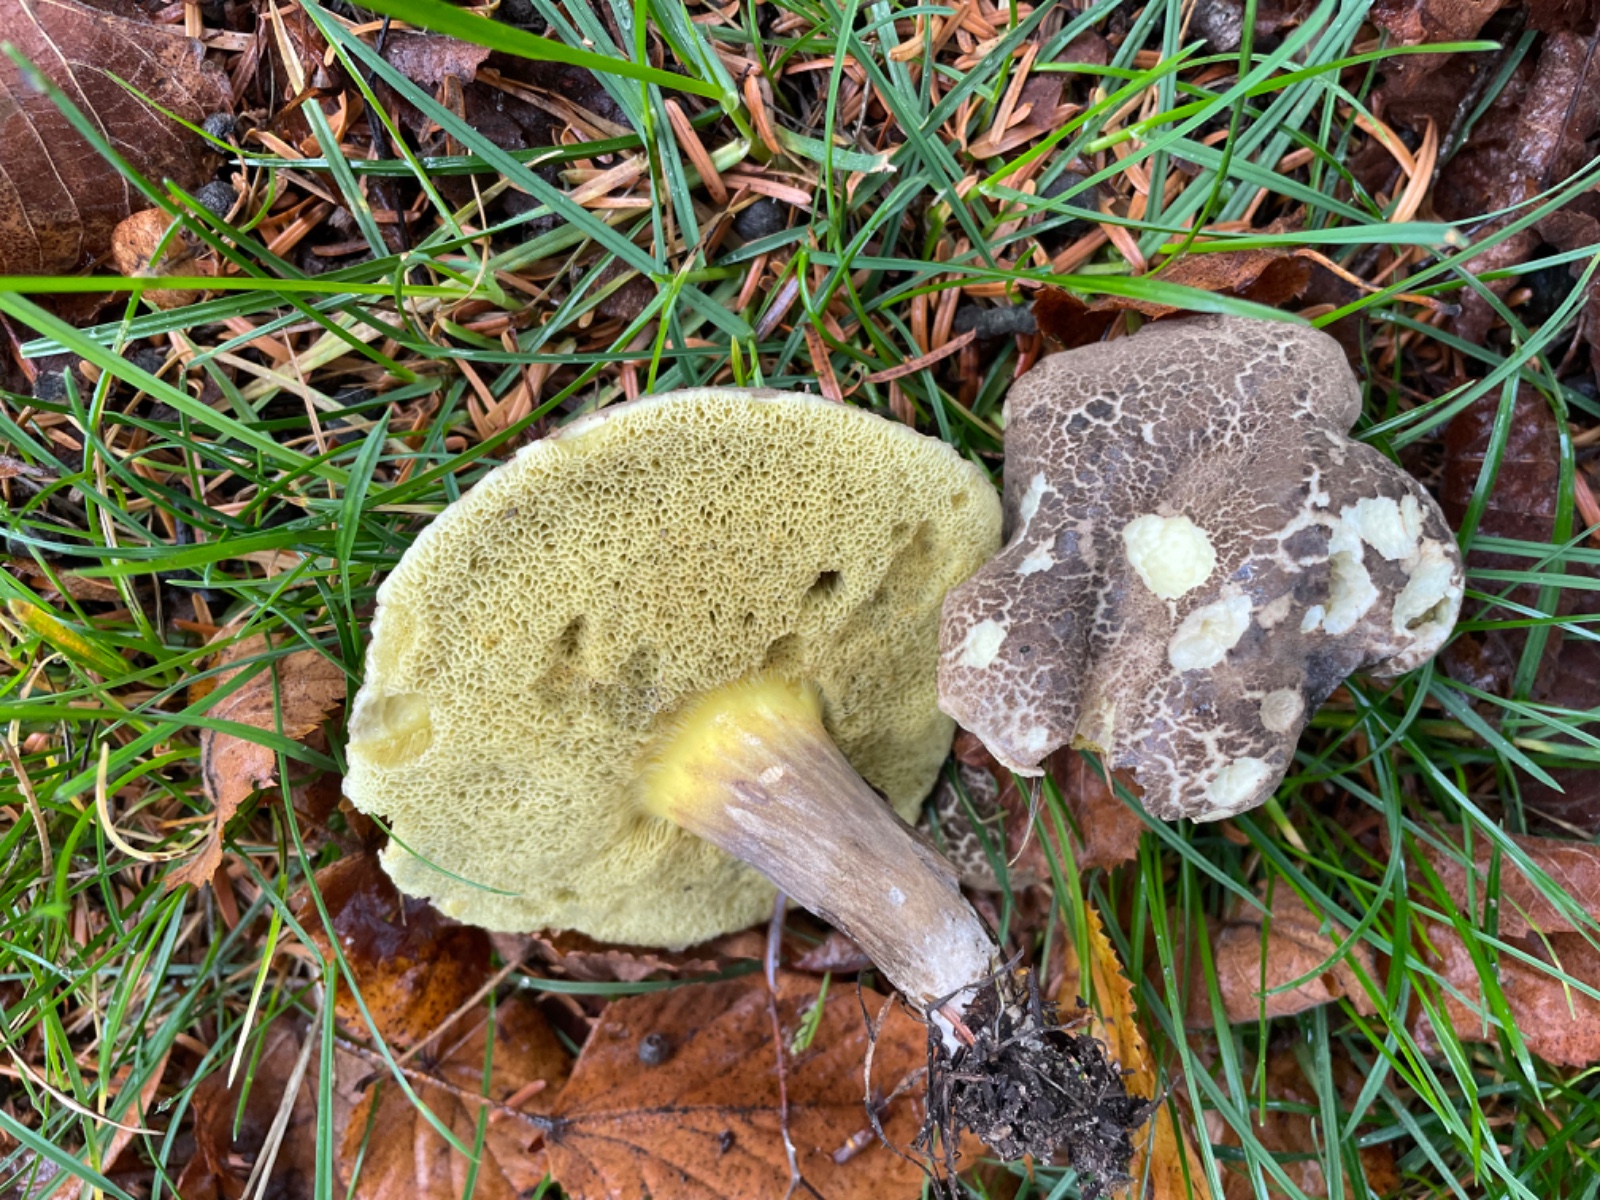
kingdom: Fungi
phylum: Basidiomycota
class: Agaricomycetes
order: Boletales
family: Boletaceae
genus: Xerocomellus
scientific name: Xerocomellus porosporus
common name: hvidsprukken rørhat
